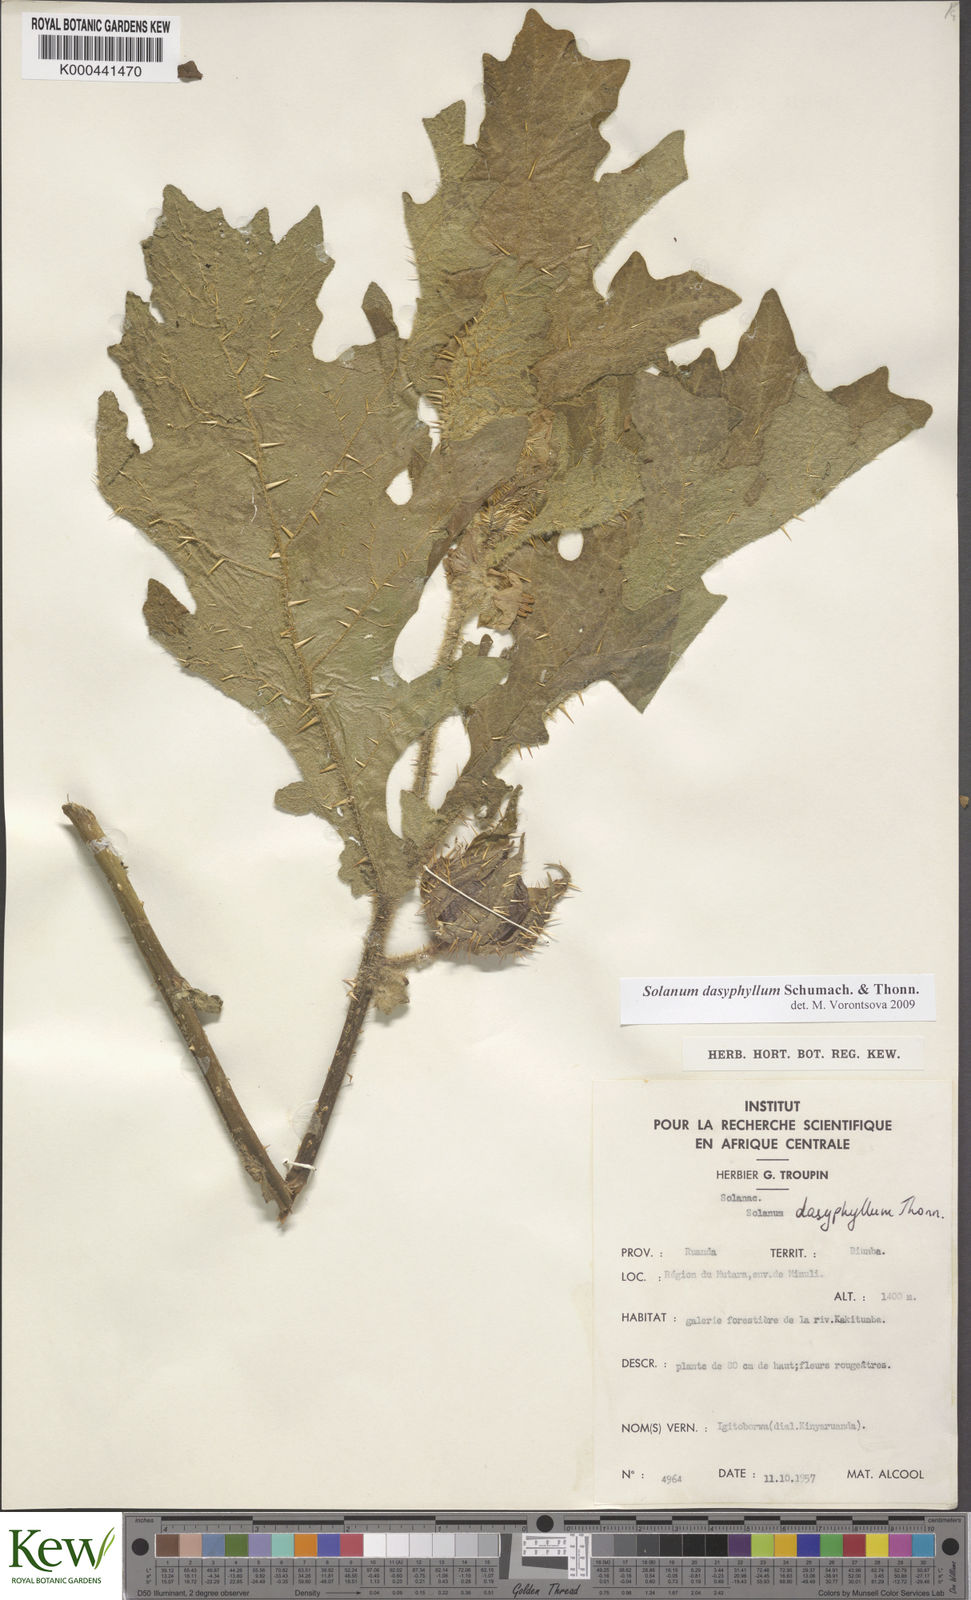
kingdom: Plantae
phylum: Tracheophyta
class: Magnoliopsida
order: Solanales
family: Solanaceae
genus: Solanum
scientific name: Solanum dasyphyllum
